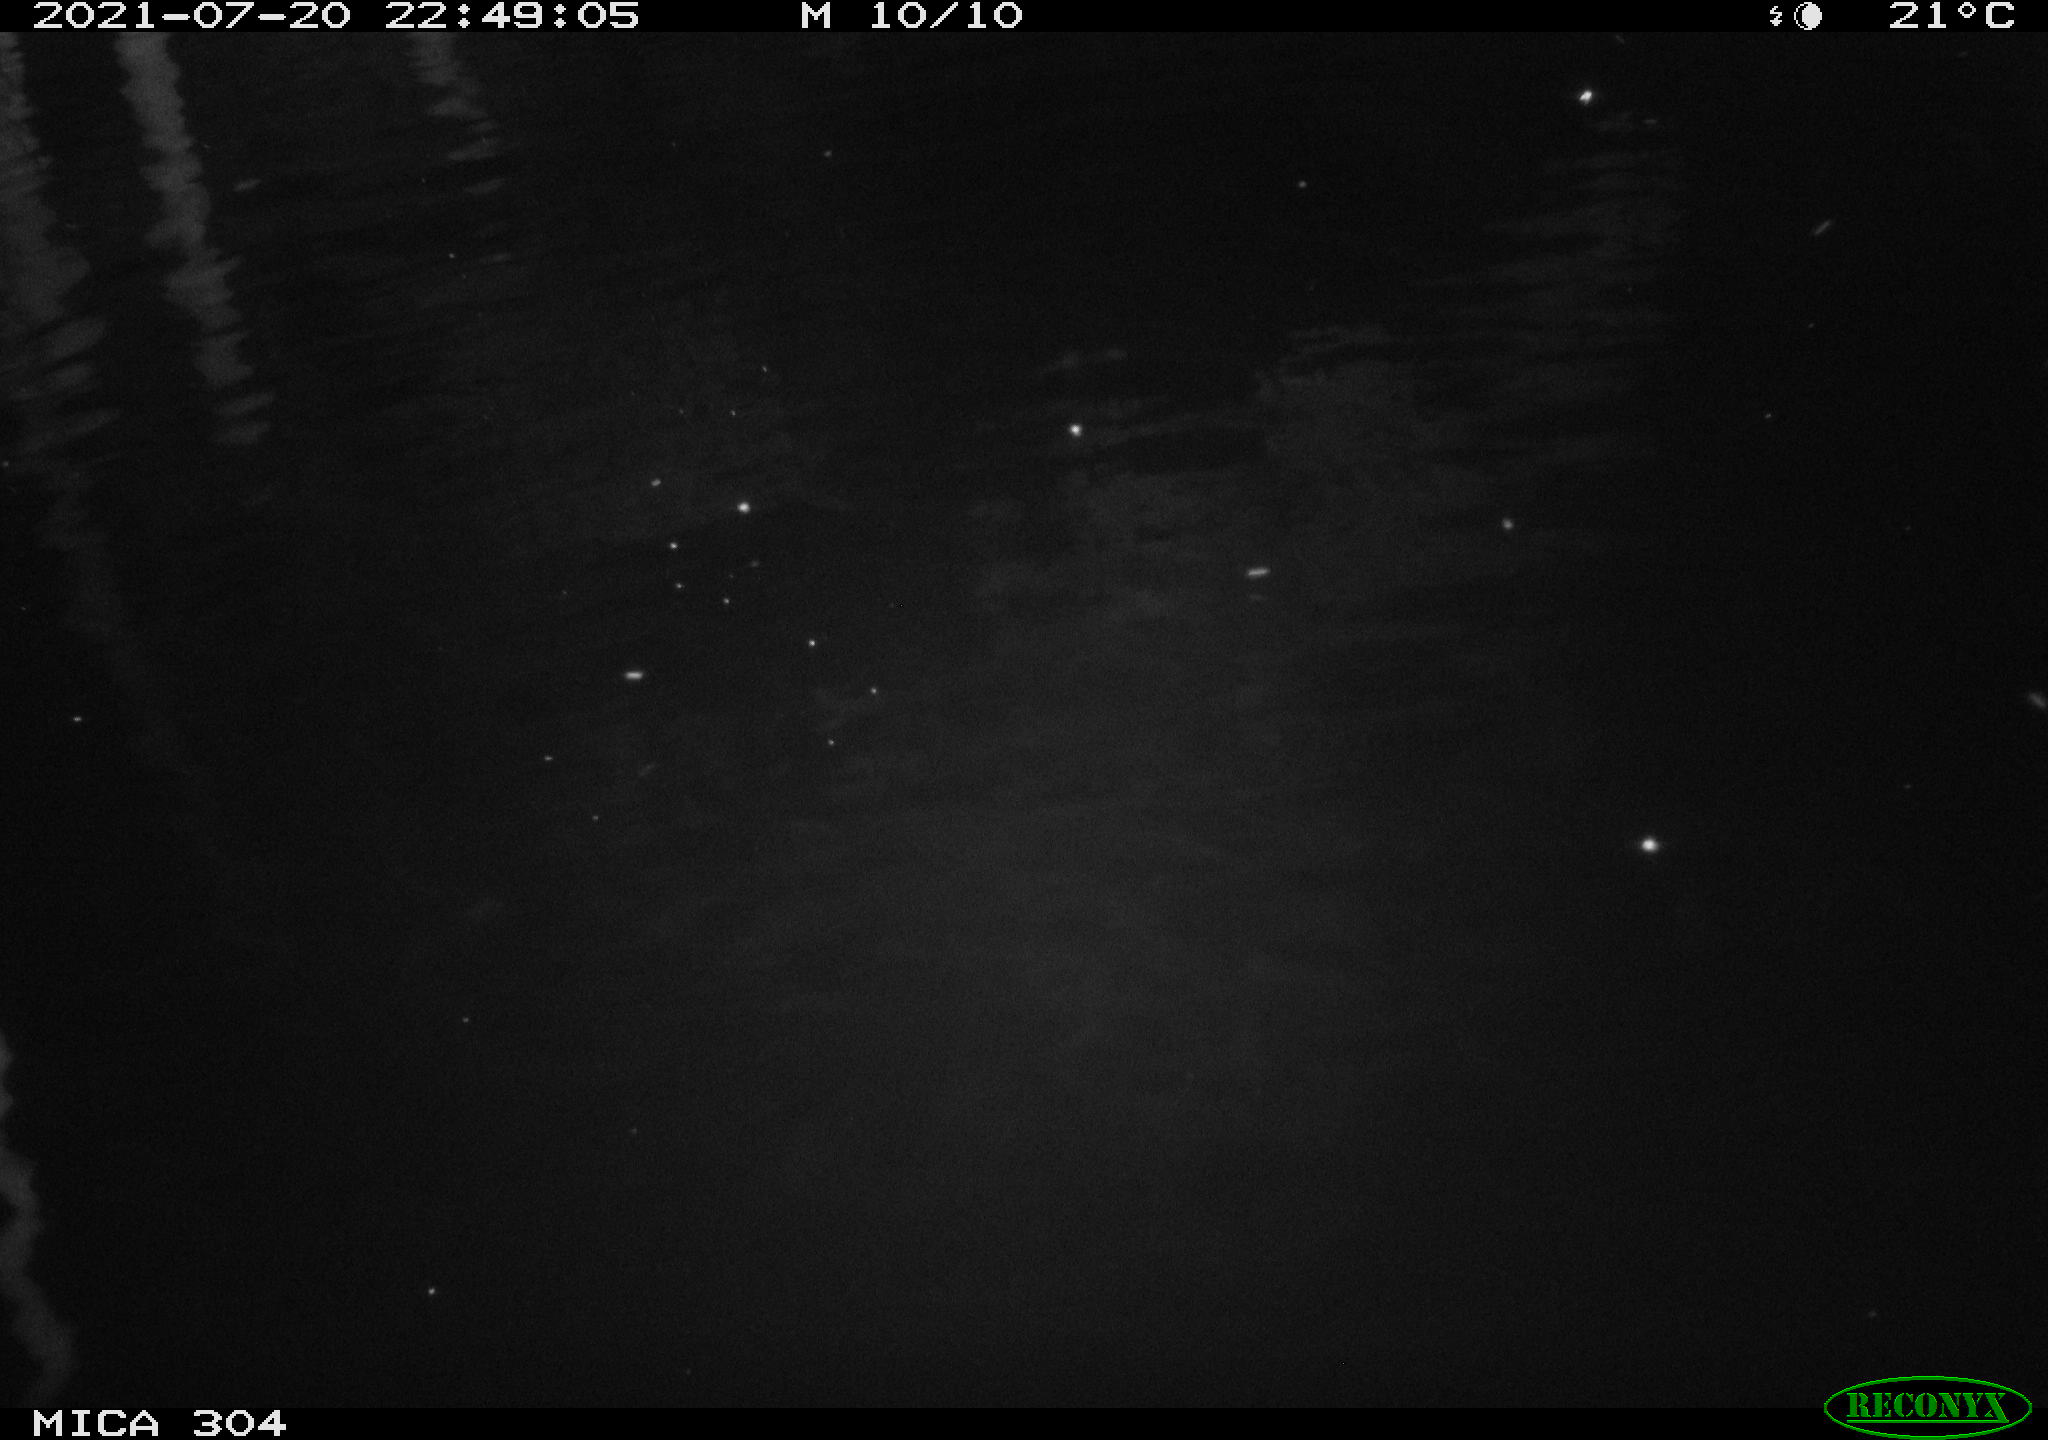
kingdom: Animalia
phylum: Chordata
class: Mammalia
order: Rodentia
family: Cricetidae
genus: Ondatra
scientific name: Ondatra zibethicus
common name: Muskrat
